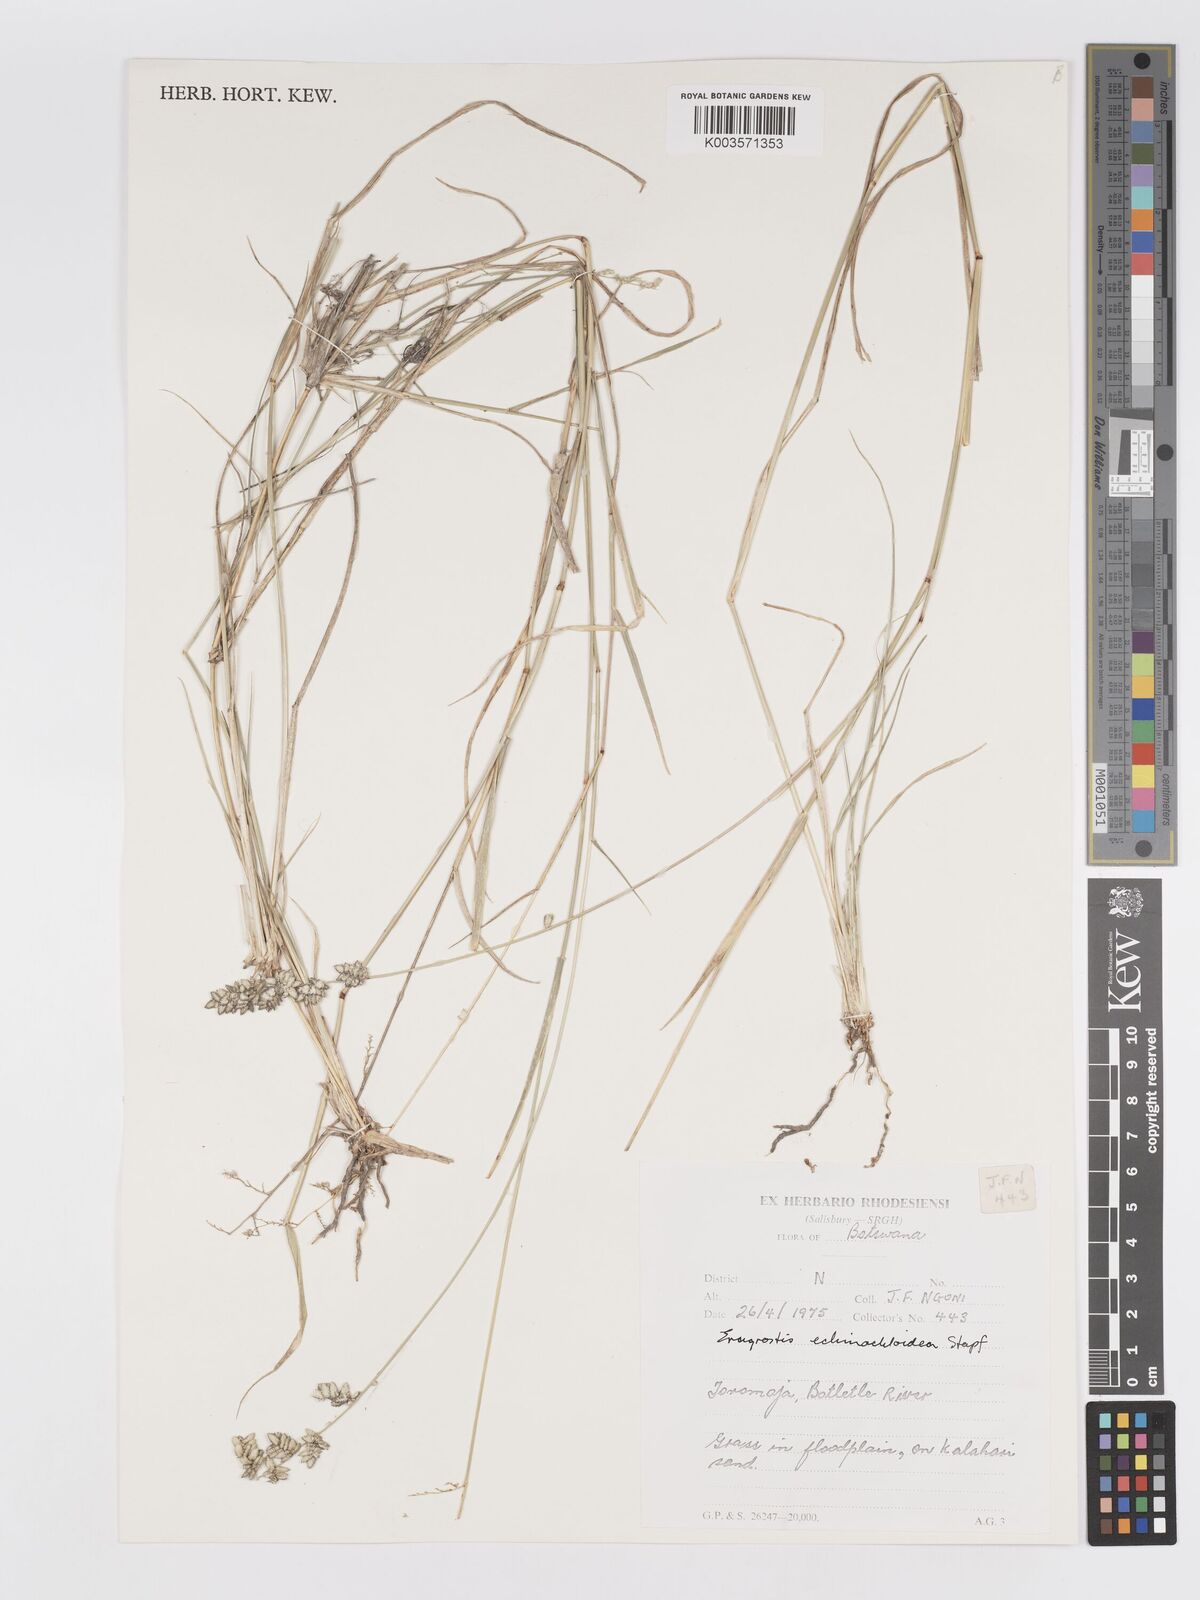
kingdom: Plantae
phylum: Tracheophyta
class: Liliopsida
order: Poales
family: Poaceae
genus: Eragrostis
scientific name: Eragrostis echinochloidea
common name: African lovegrass
